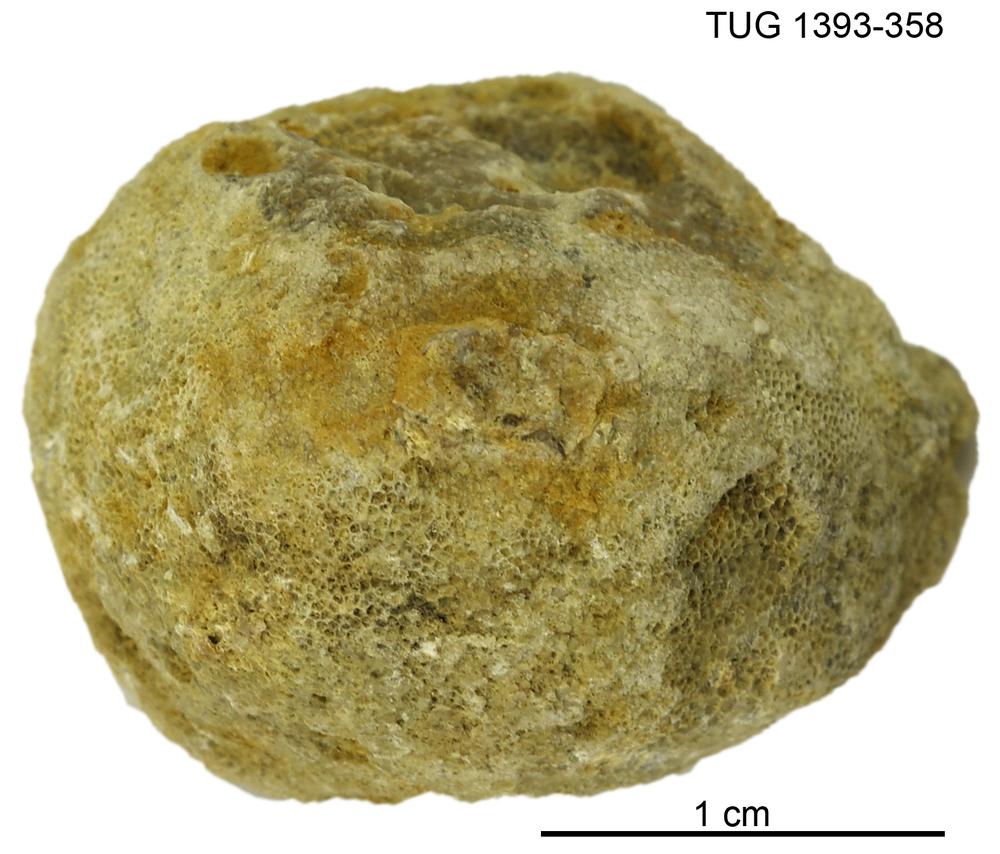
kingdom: Animalia
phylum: Bryozoa
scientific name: Bryozoa
